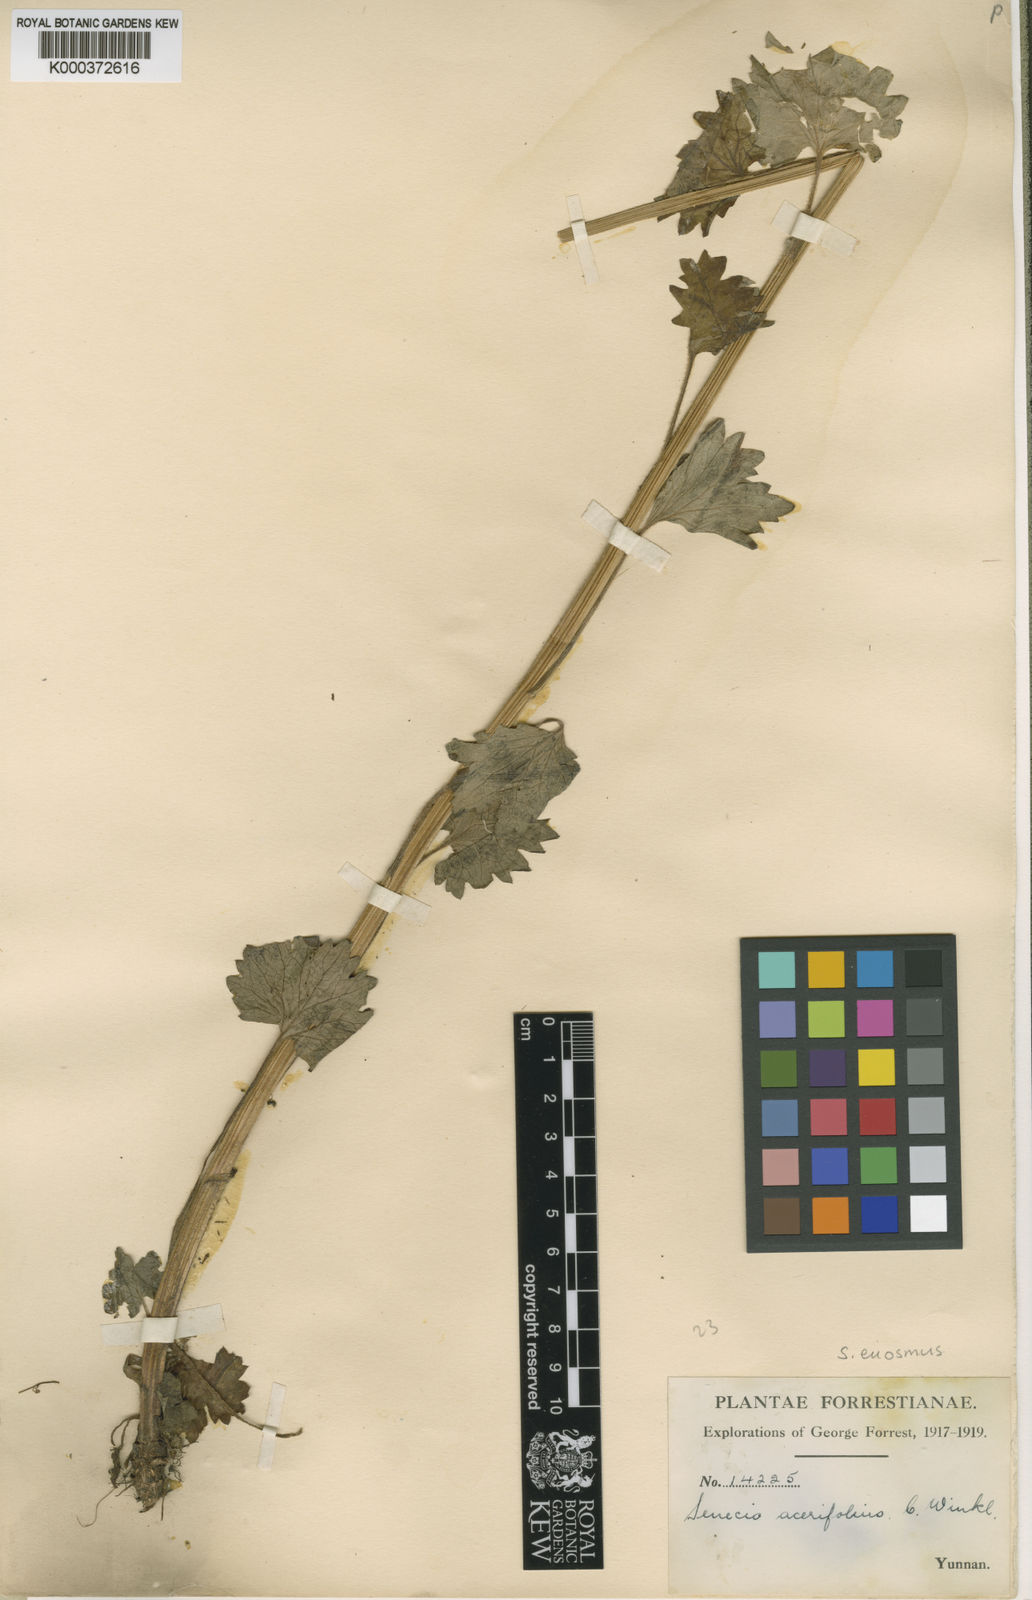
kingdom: Plantae
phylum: Tracheophyta
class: Magnoliopsida
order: Asterales
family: Asteraceae
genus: Sinosenecio
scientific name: Sinosenecio euosmus
